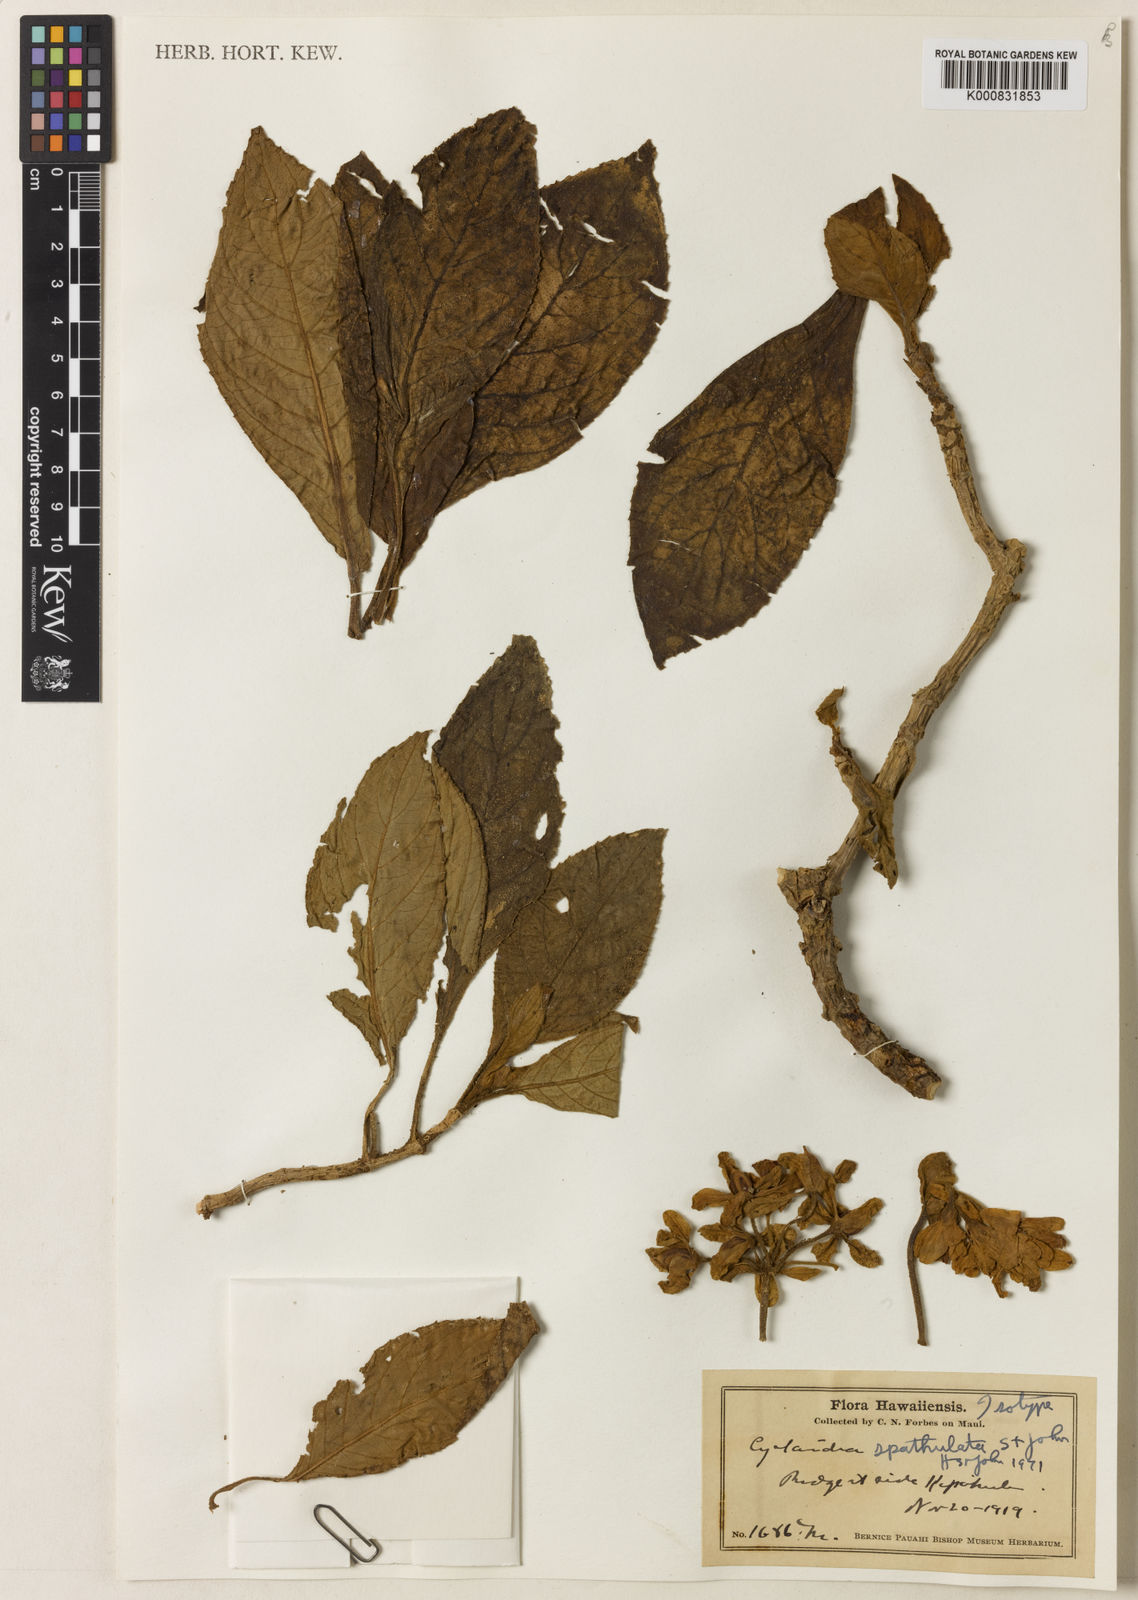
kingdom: Plantae
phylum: Tracheophyta
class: Magnoliopsida
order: Lamiales
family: Gesneriaceae
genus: Cyrtandra
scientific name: Cyrtandra spathulata
